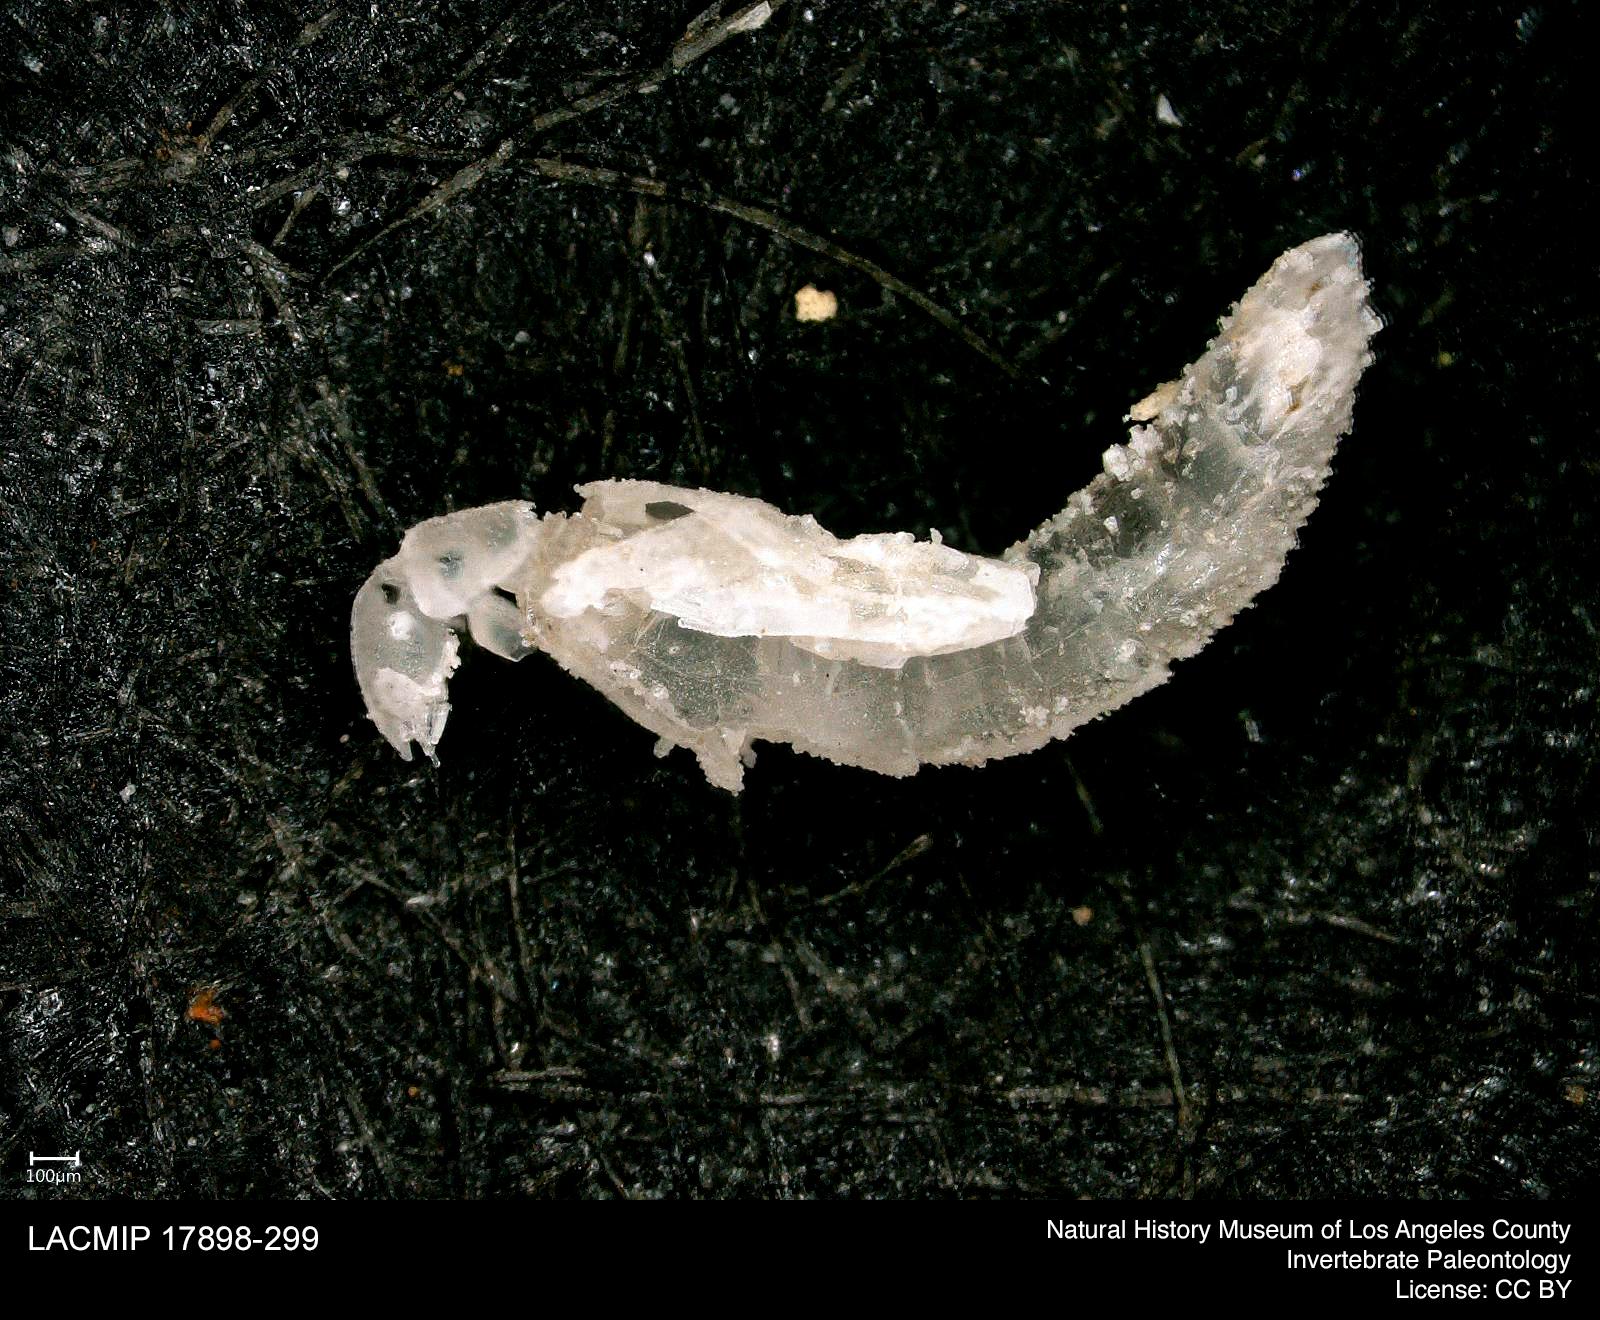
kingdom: Animalia
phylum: Arthropoda
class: Insecta
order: Coleoptera
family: Staphylinidae
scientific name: Staphylinidae
